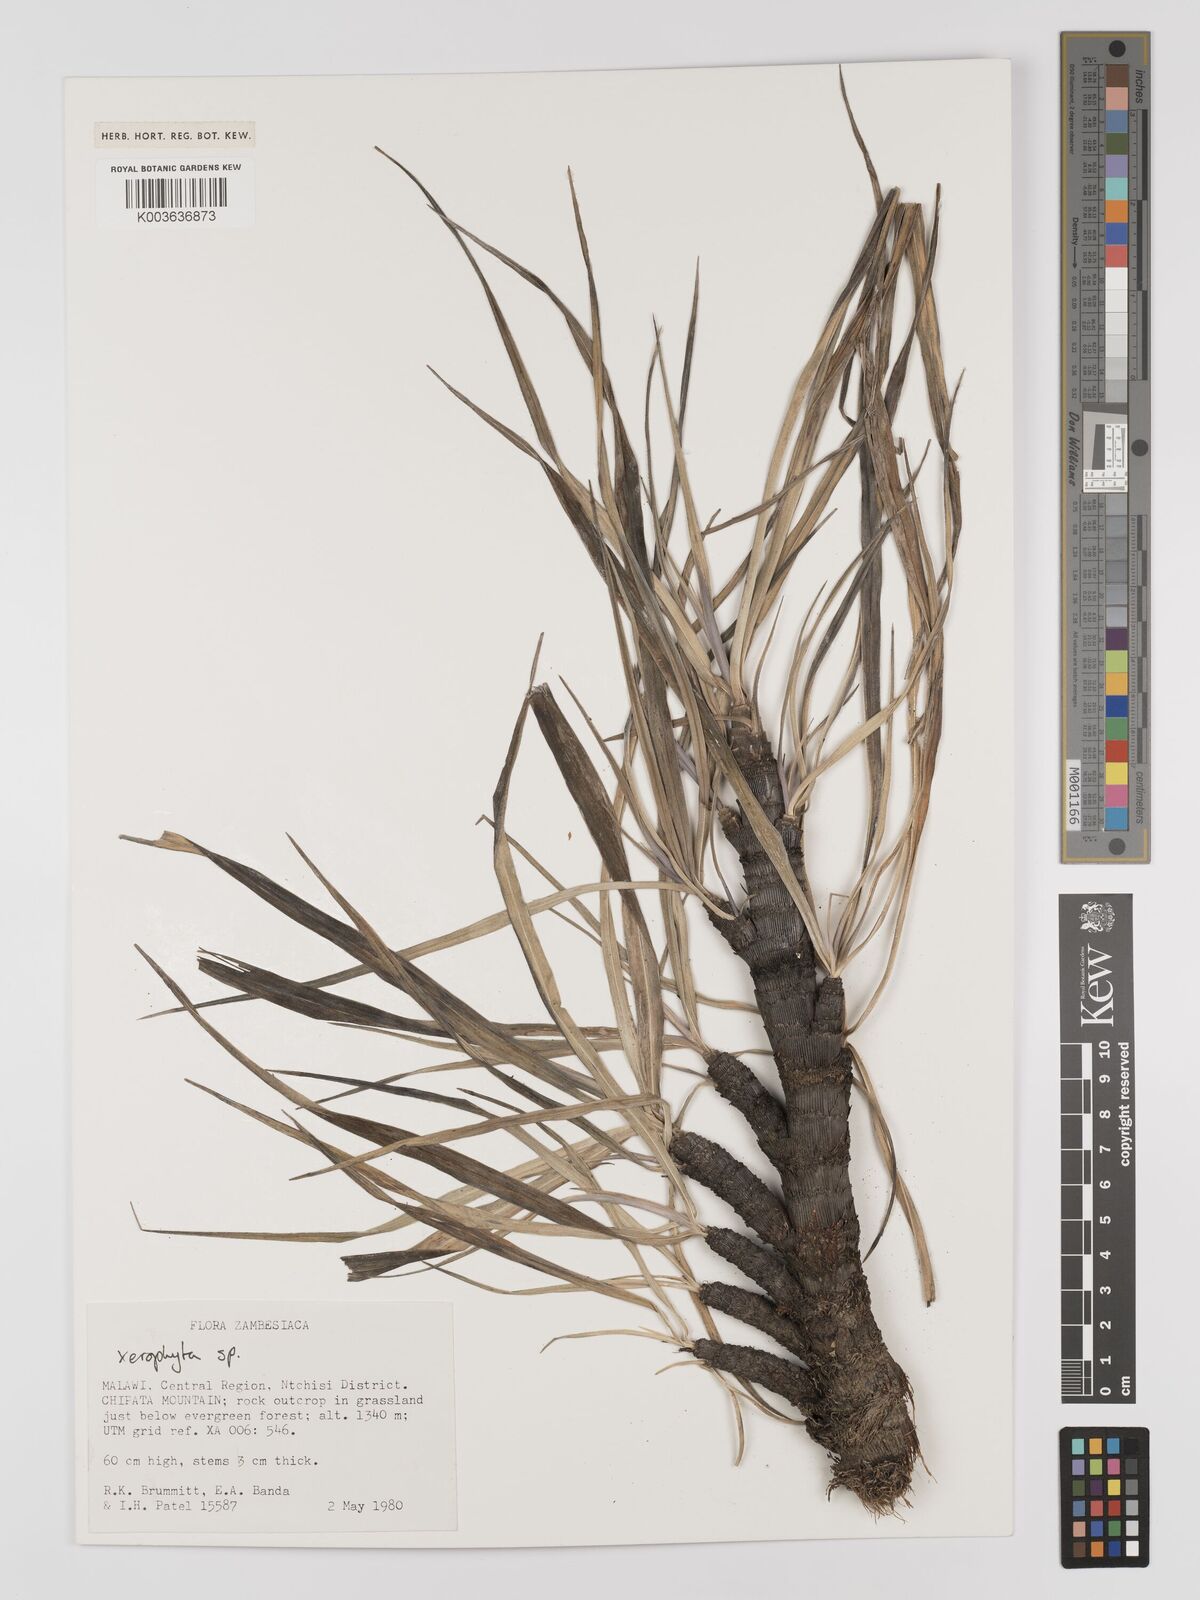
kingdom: Plantae
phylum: Tracheophyta
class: Liliopsida
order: Pandanales
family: Velloziaceae
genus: Xerophyta
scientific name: Xerophyta
